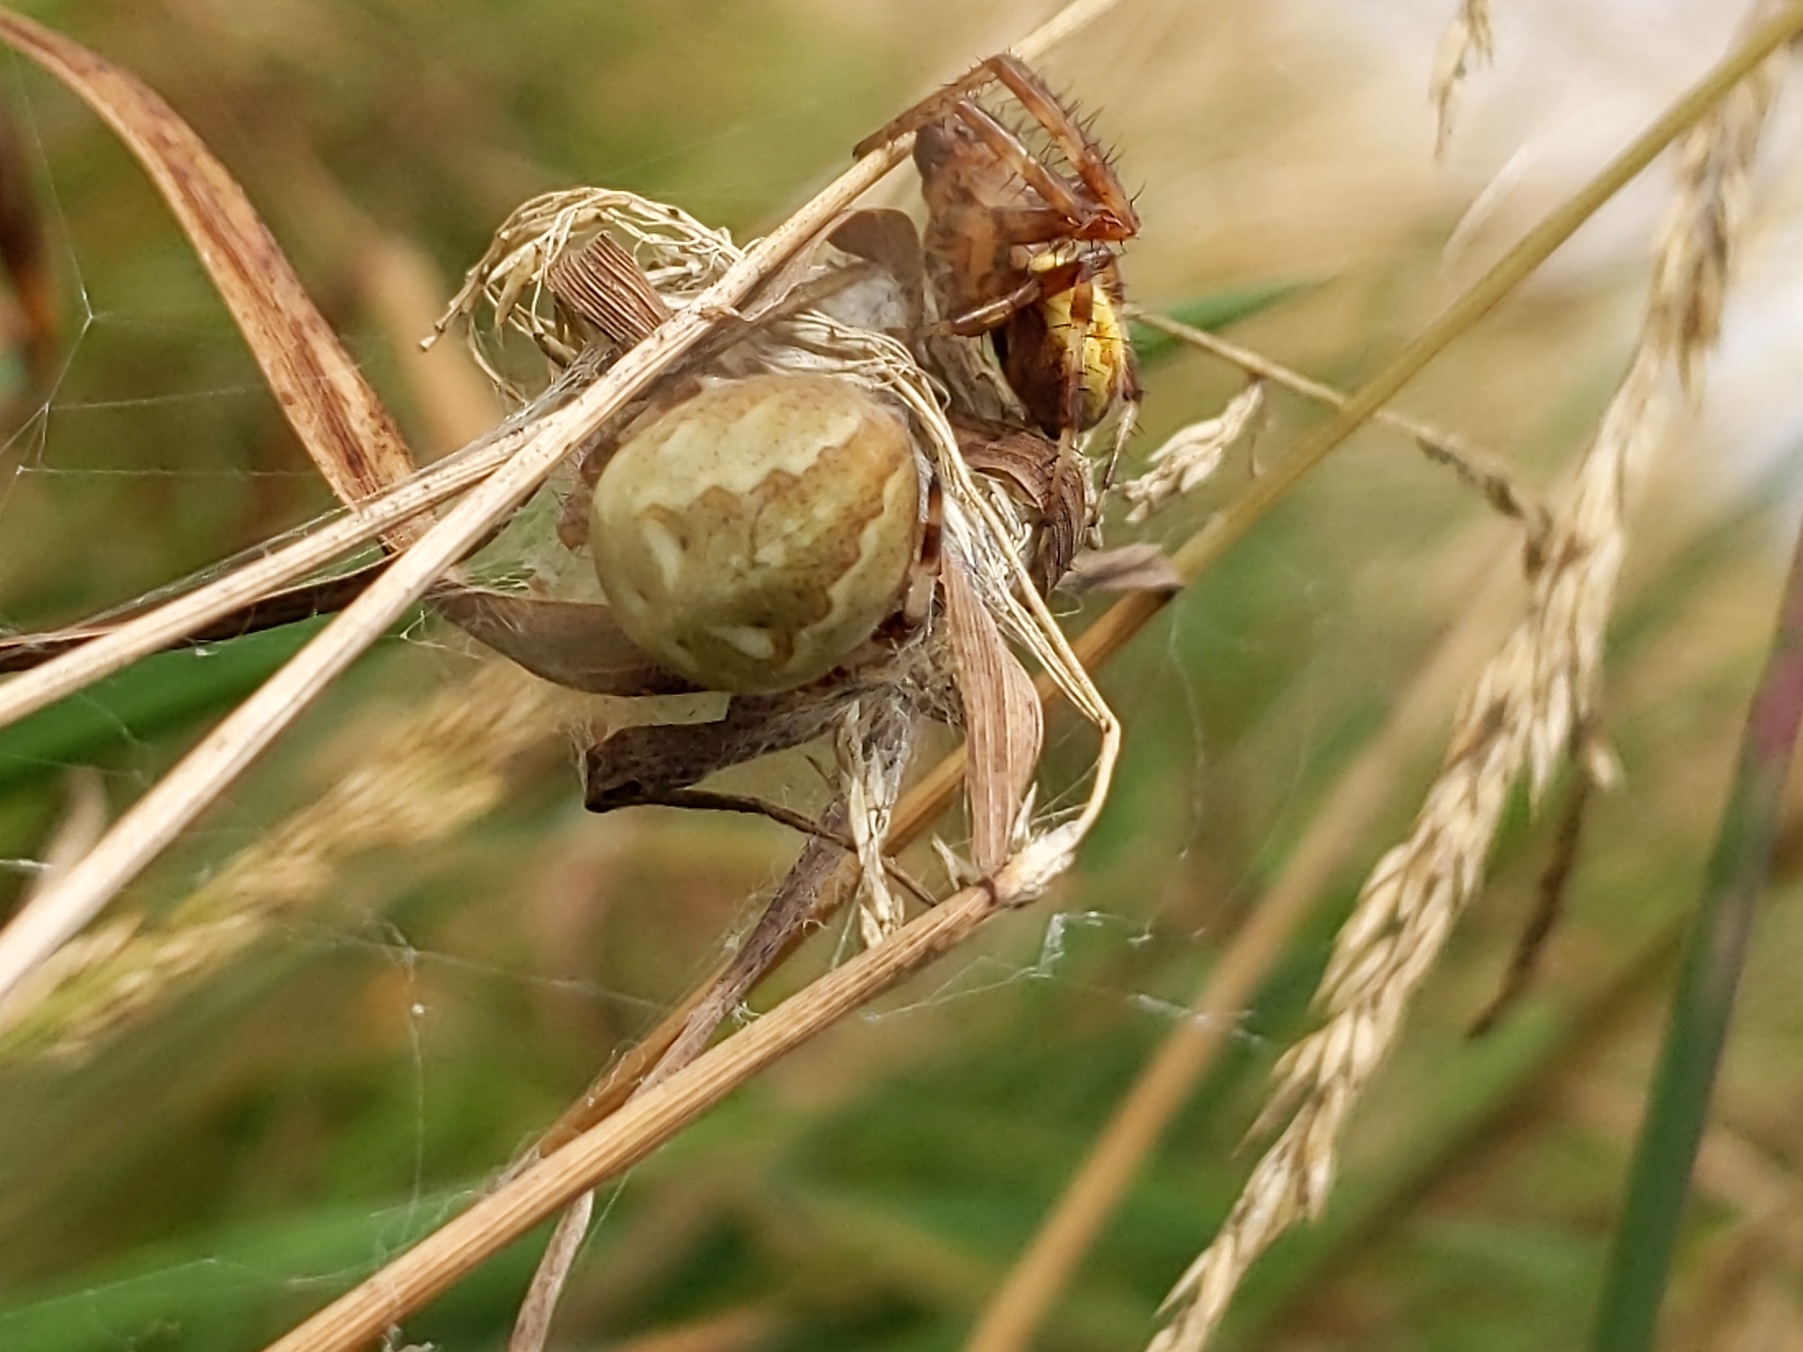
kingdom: Animalia
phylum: Arthropoda
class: Arachnida
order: Araneae
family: Araneidae
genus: Araneus
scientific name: Araneus quadratus
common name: Kvadratedderkop
